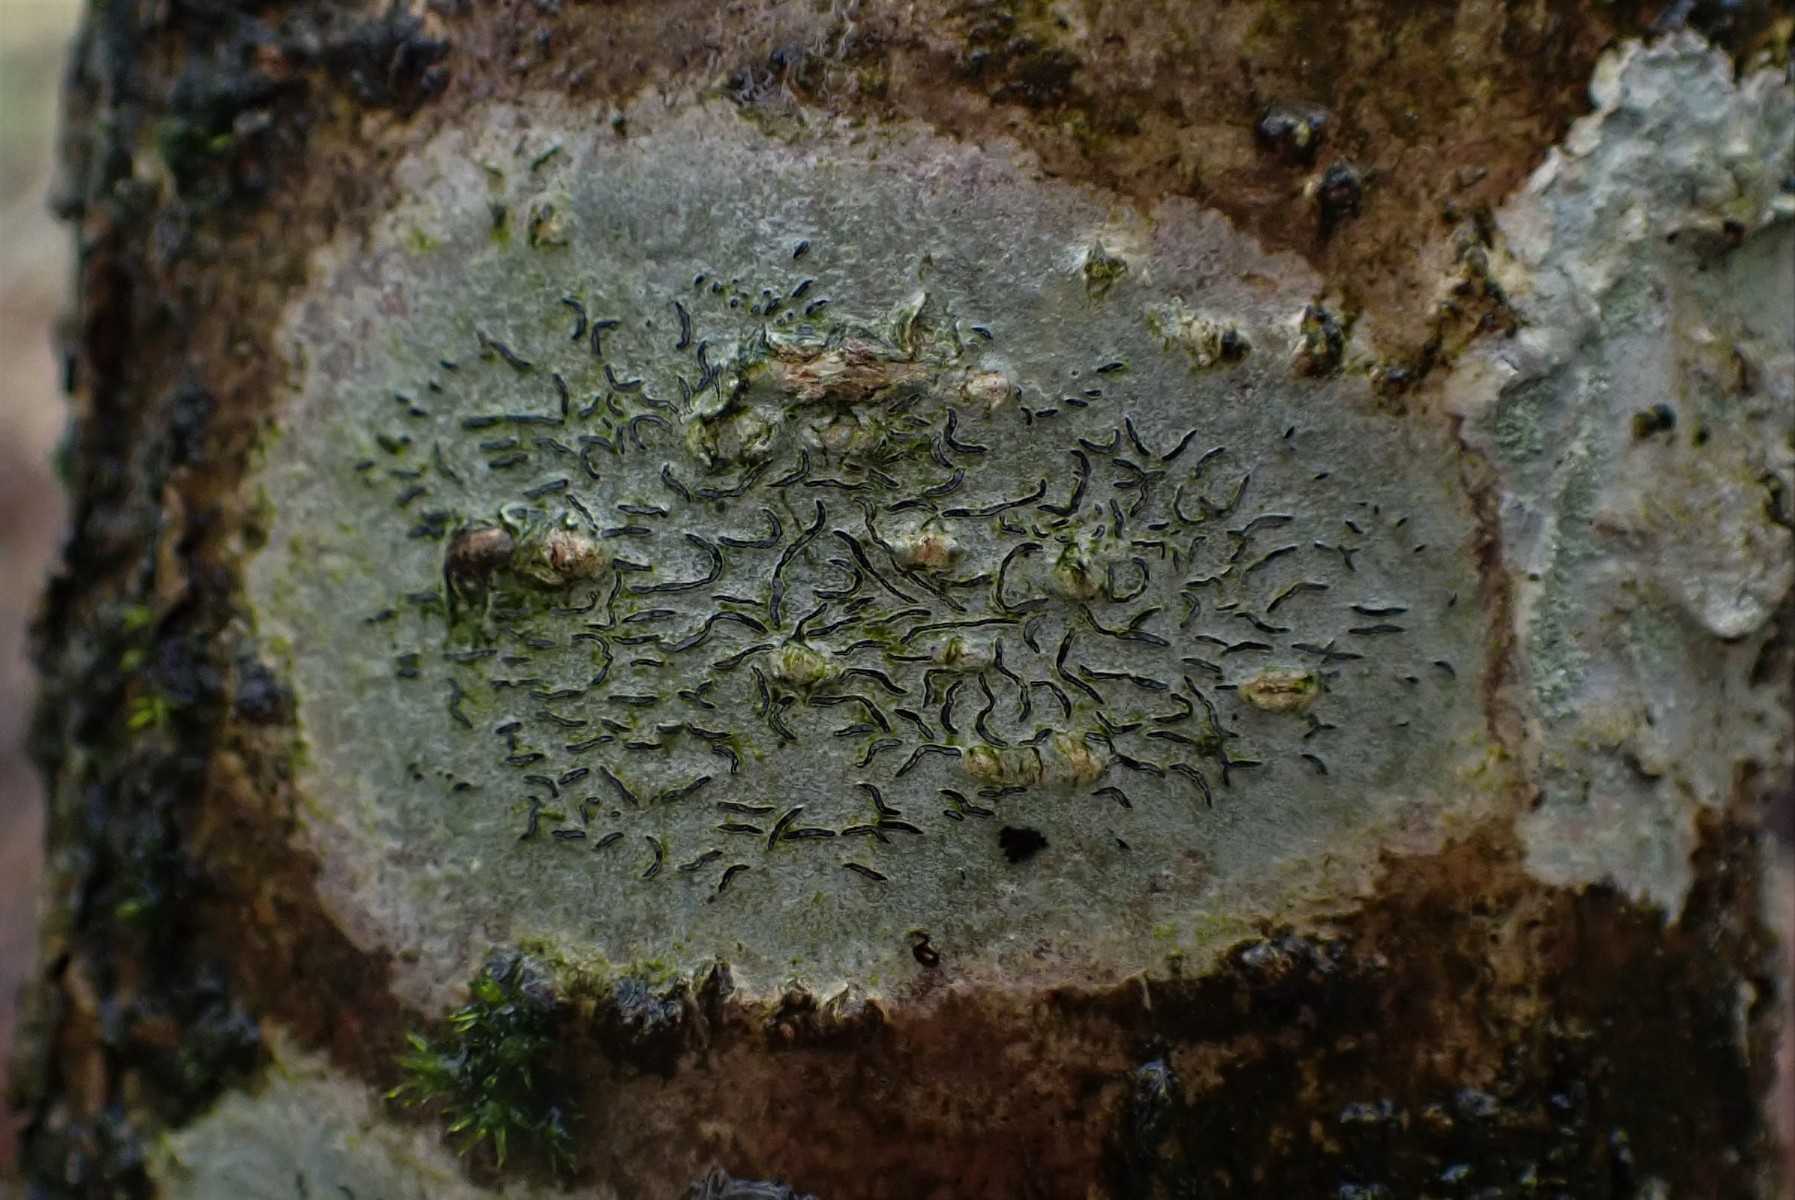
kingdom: Fungi
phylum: Ascomycota
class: Lecanoromycetes
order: Ostropales
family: Graphidaceae
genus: Graphis
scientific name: Graphis scripta
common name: almindelig skriftlav
